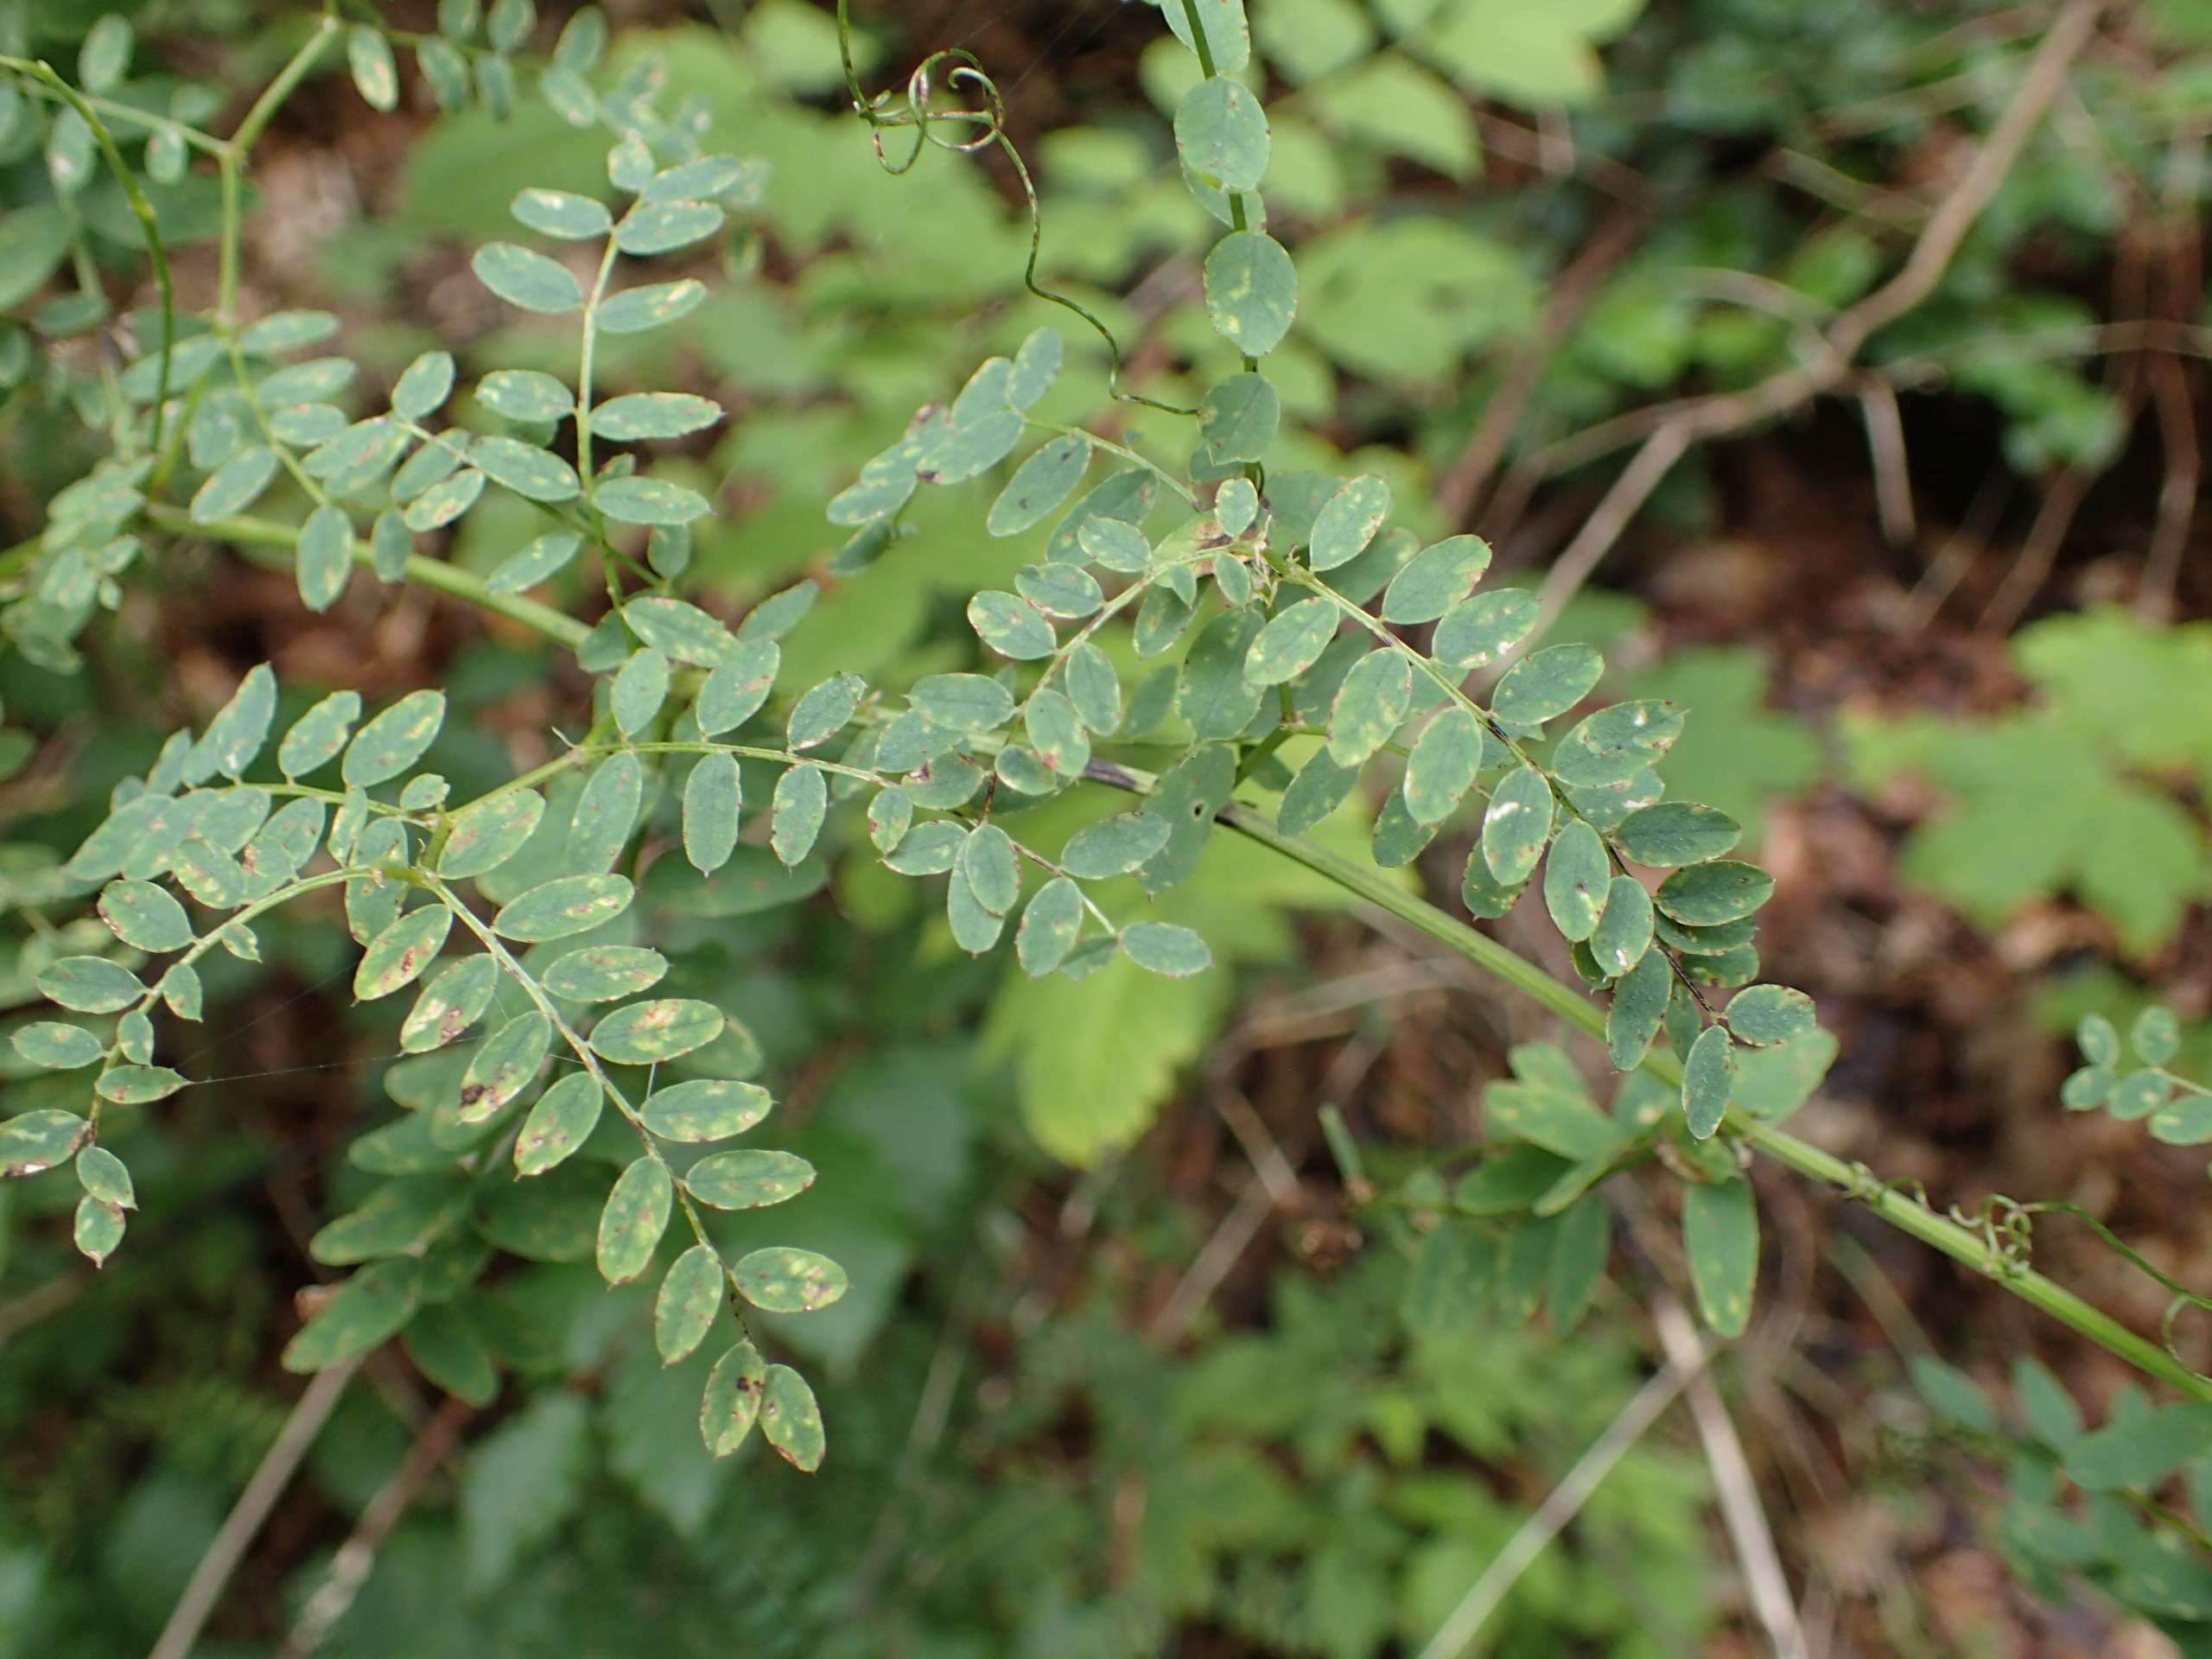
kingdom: Plantae
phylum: Tracheophyta
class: Magnoliopsida
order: Fabales
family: Fabaceae
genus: Vicia
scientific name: Vicia sylvatica
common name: Skov-vikke
